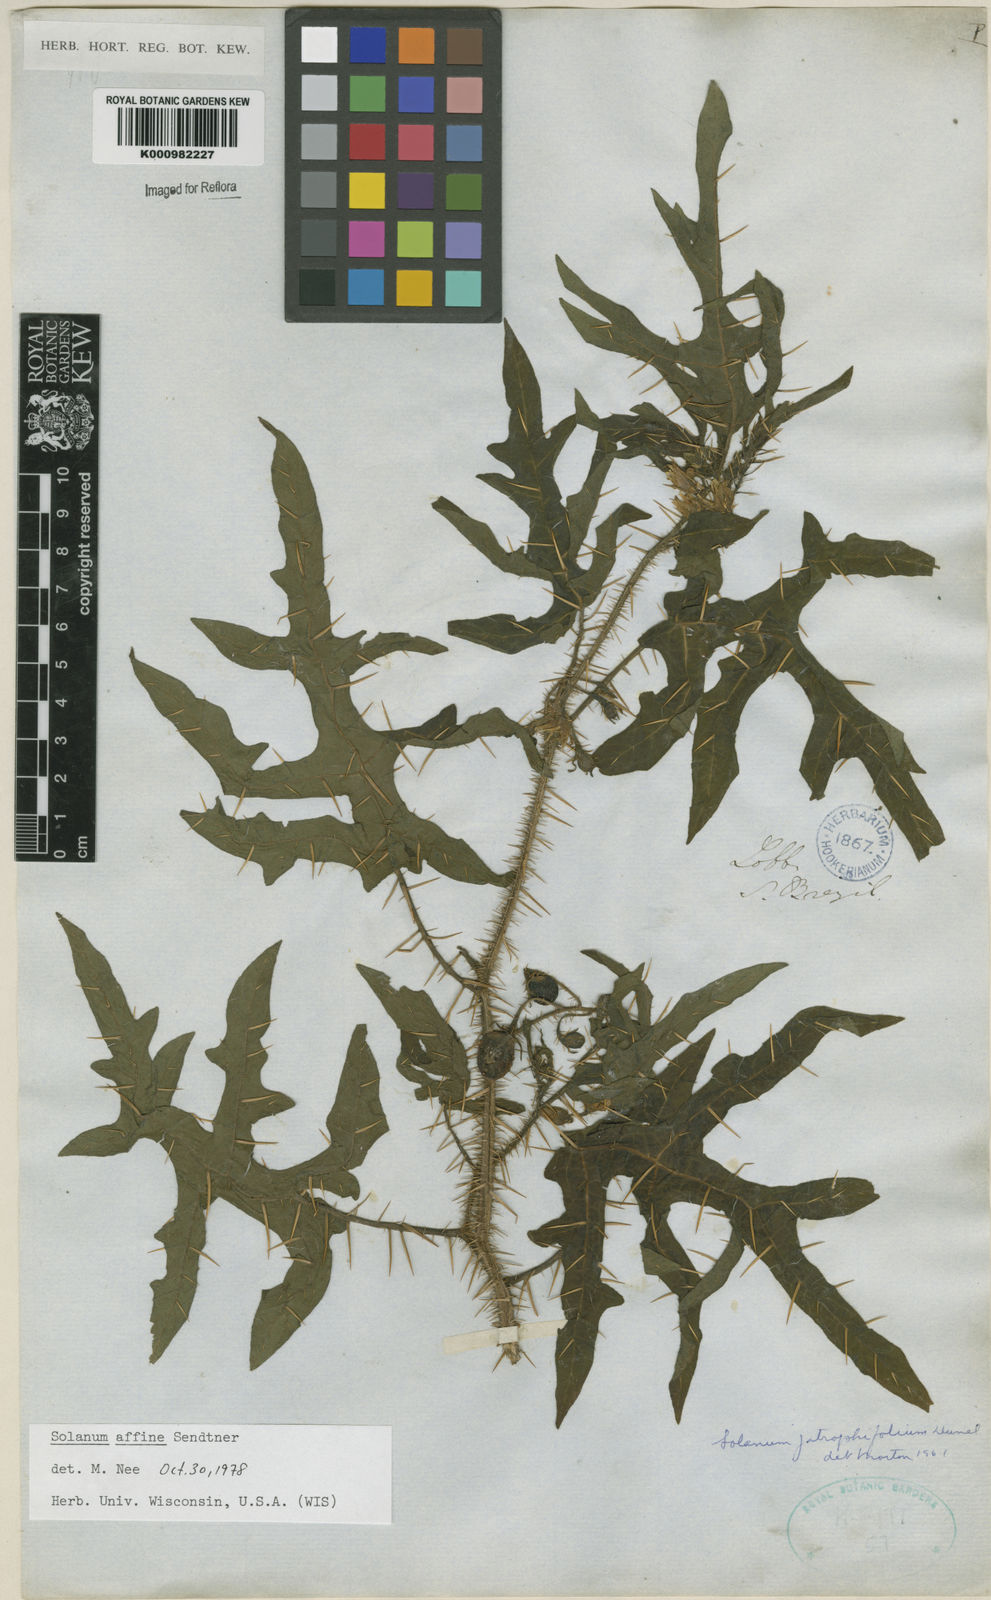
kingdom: Plantae
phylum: Tracheophyta
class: Magnoliopsida
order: Solanales
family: Solanaceae
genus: Solanum
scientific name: Solanum affine
